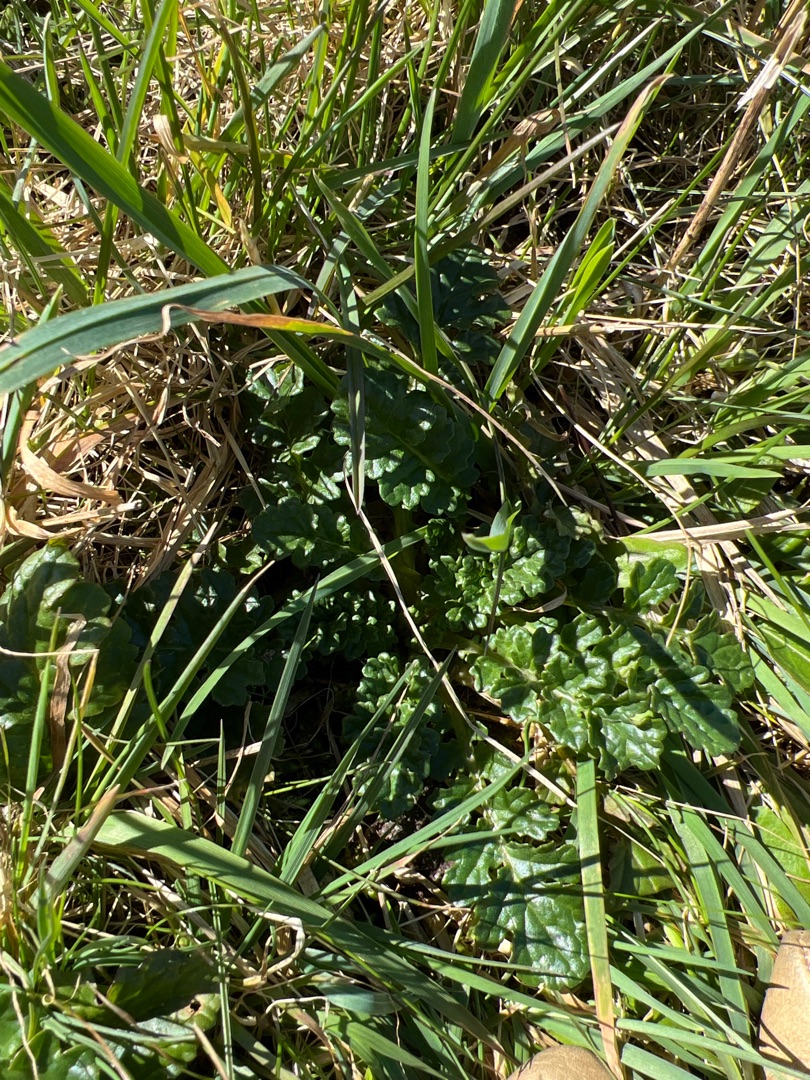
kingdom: Plantae
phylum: Tracheophyta
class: Magnoliopsida
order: Asterales
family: Asteraceae
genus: Jacobaea
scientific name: Jacobaea vulgaris
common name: Eng-brandbæger
